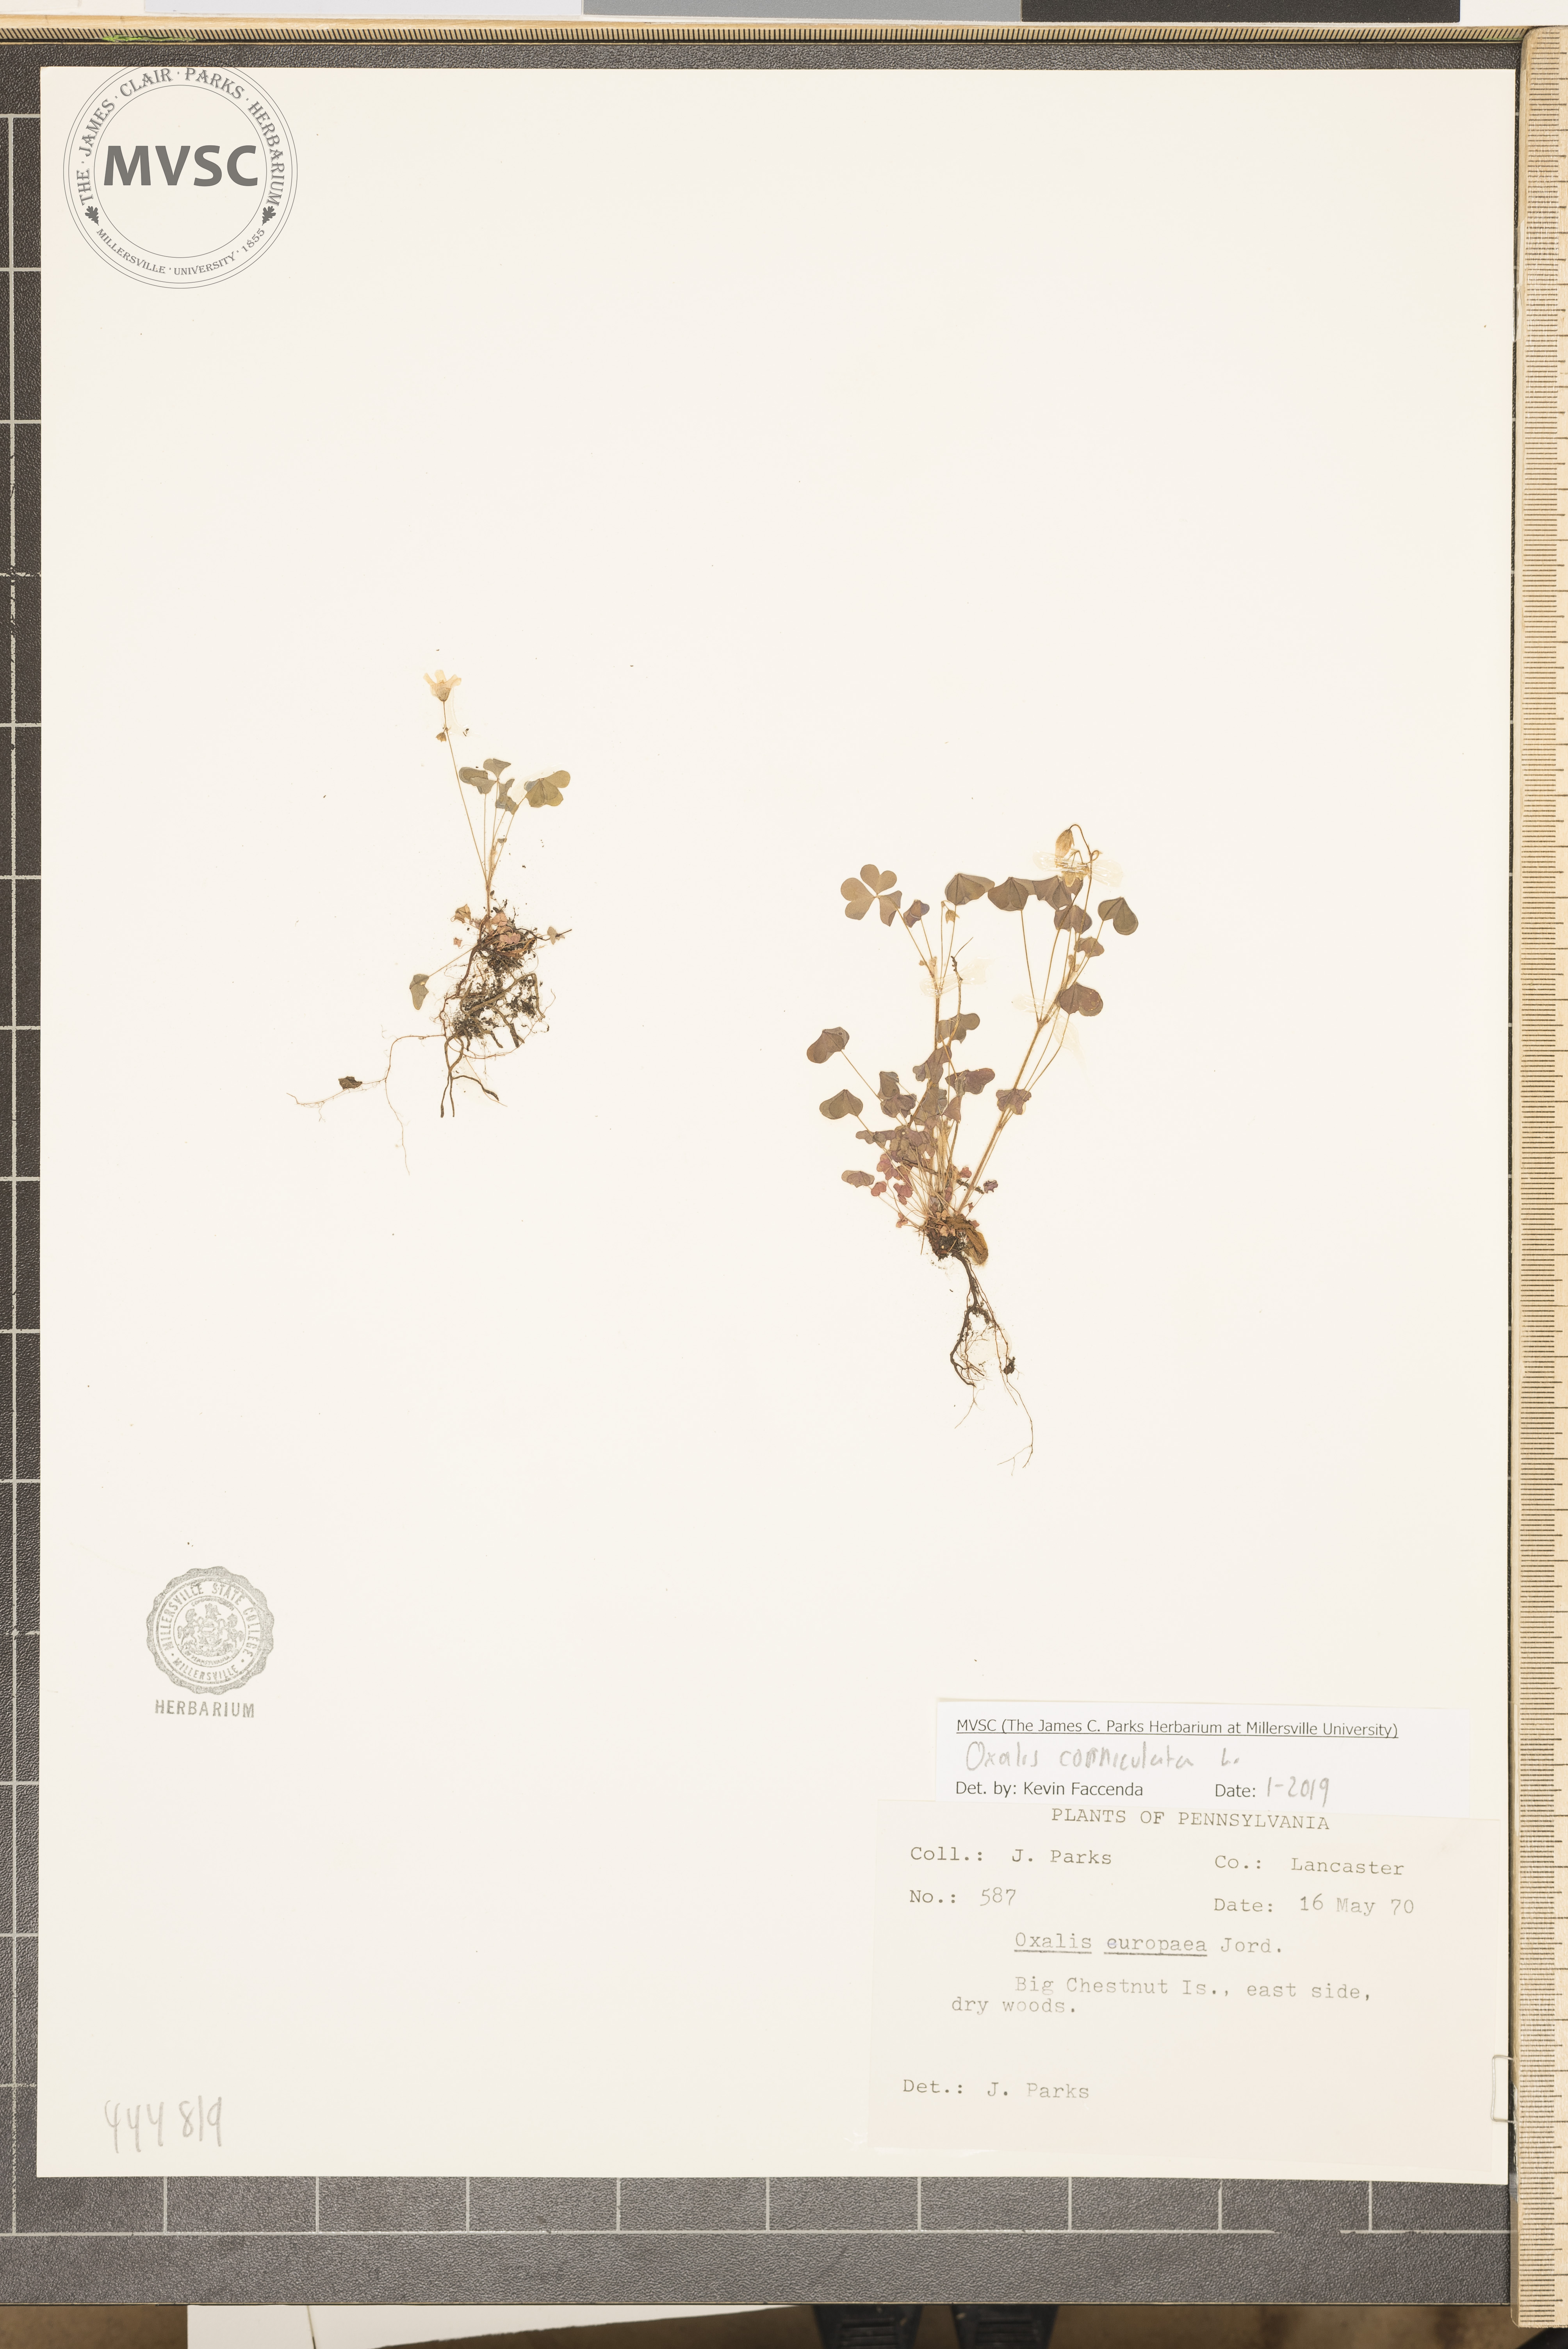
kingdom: Plantae
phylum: Tracheophyta
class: Magnoliopsida
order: Oxalidales
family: Oxalidaceae
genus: Oxalis
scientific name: Oxalis corniculata
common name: Procumbent yellow-sorrel
